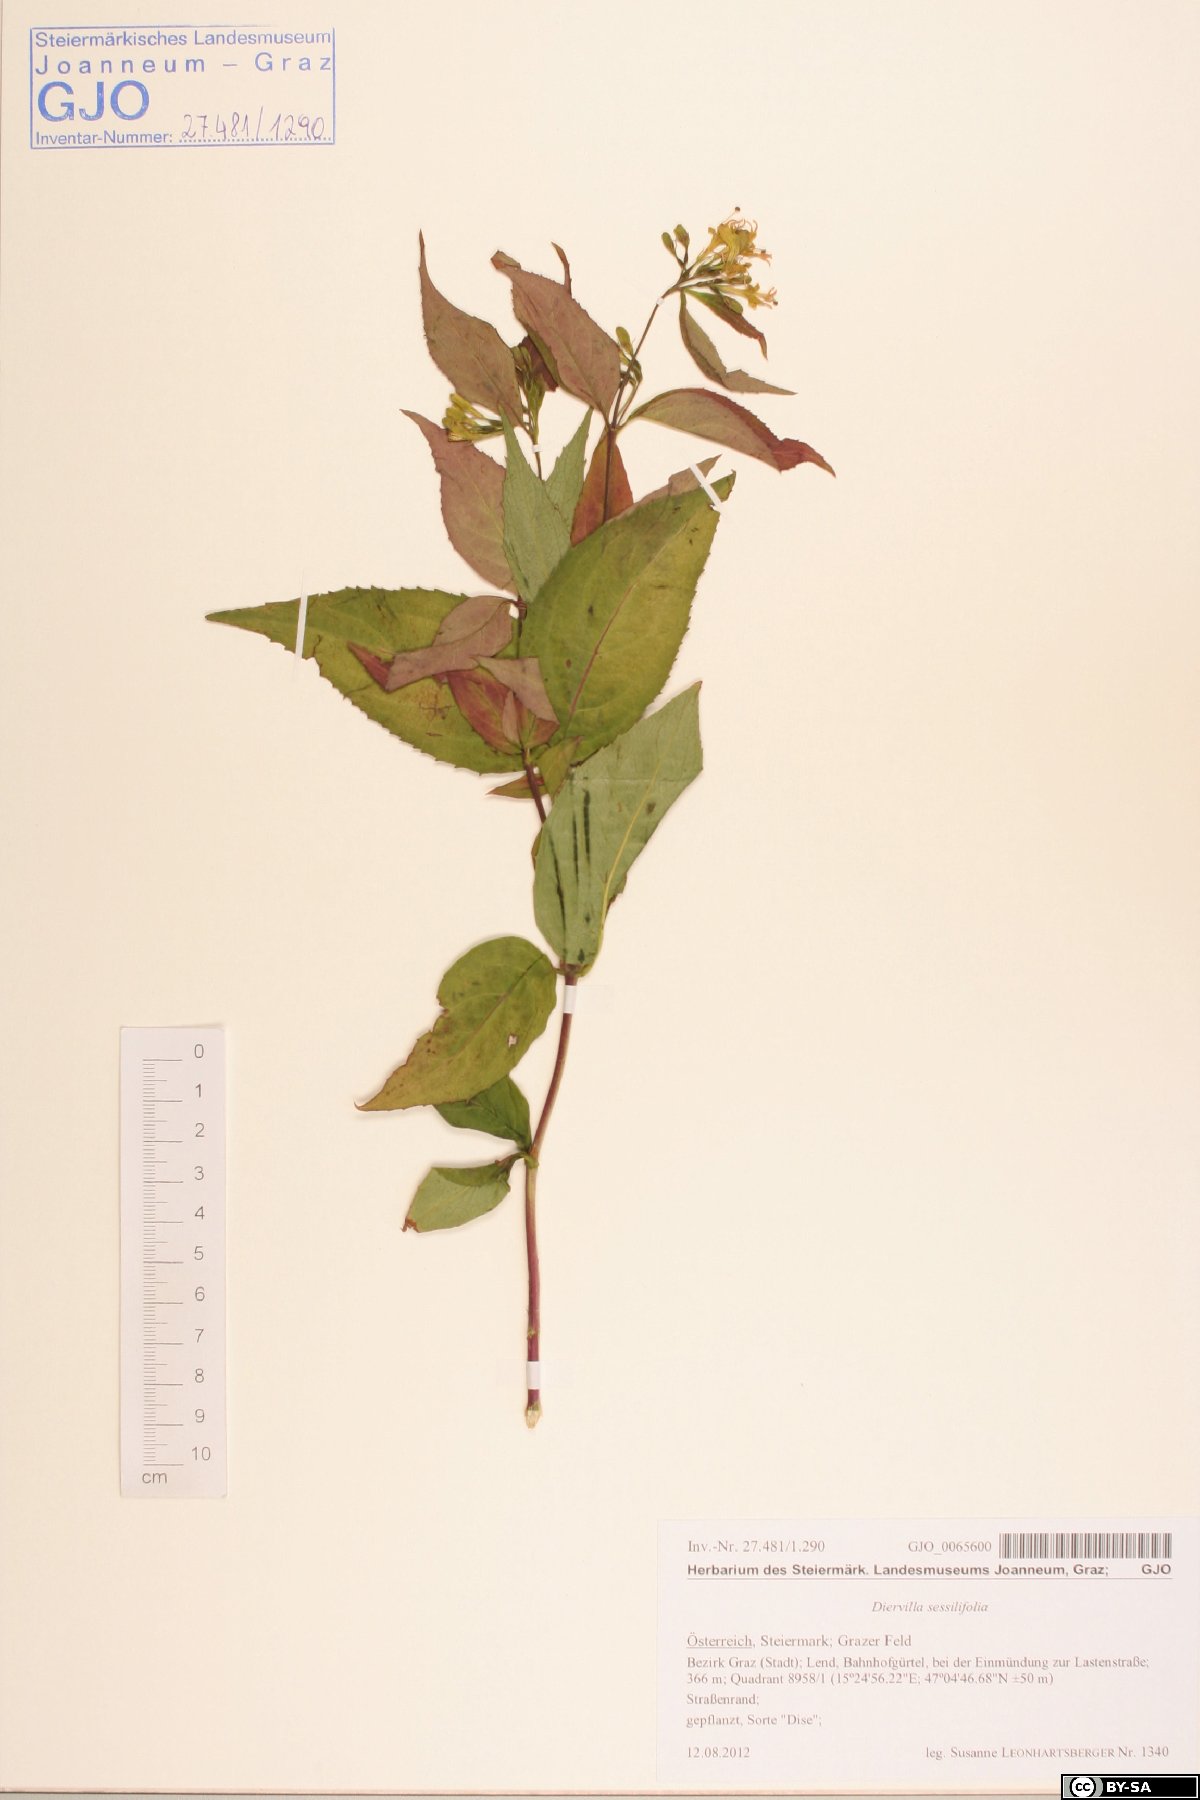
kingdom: Plantae
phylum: Tracheophyta
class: Magnoliopsida
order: Dipsacales
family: Caprifoliaceae
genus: Diervilla
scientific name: Diervilla sessilifolia
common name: Bush-honeysuckle
